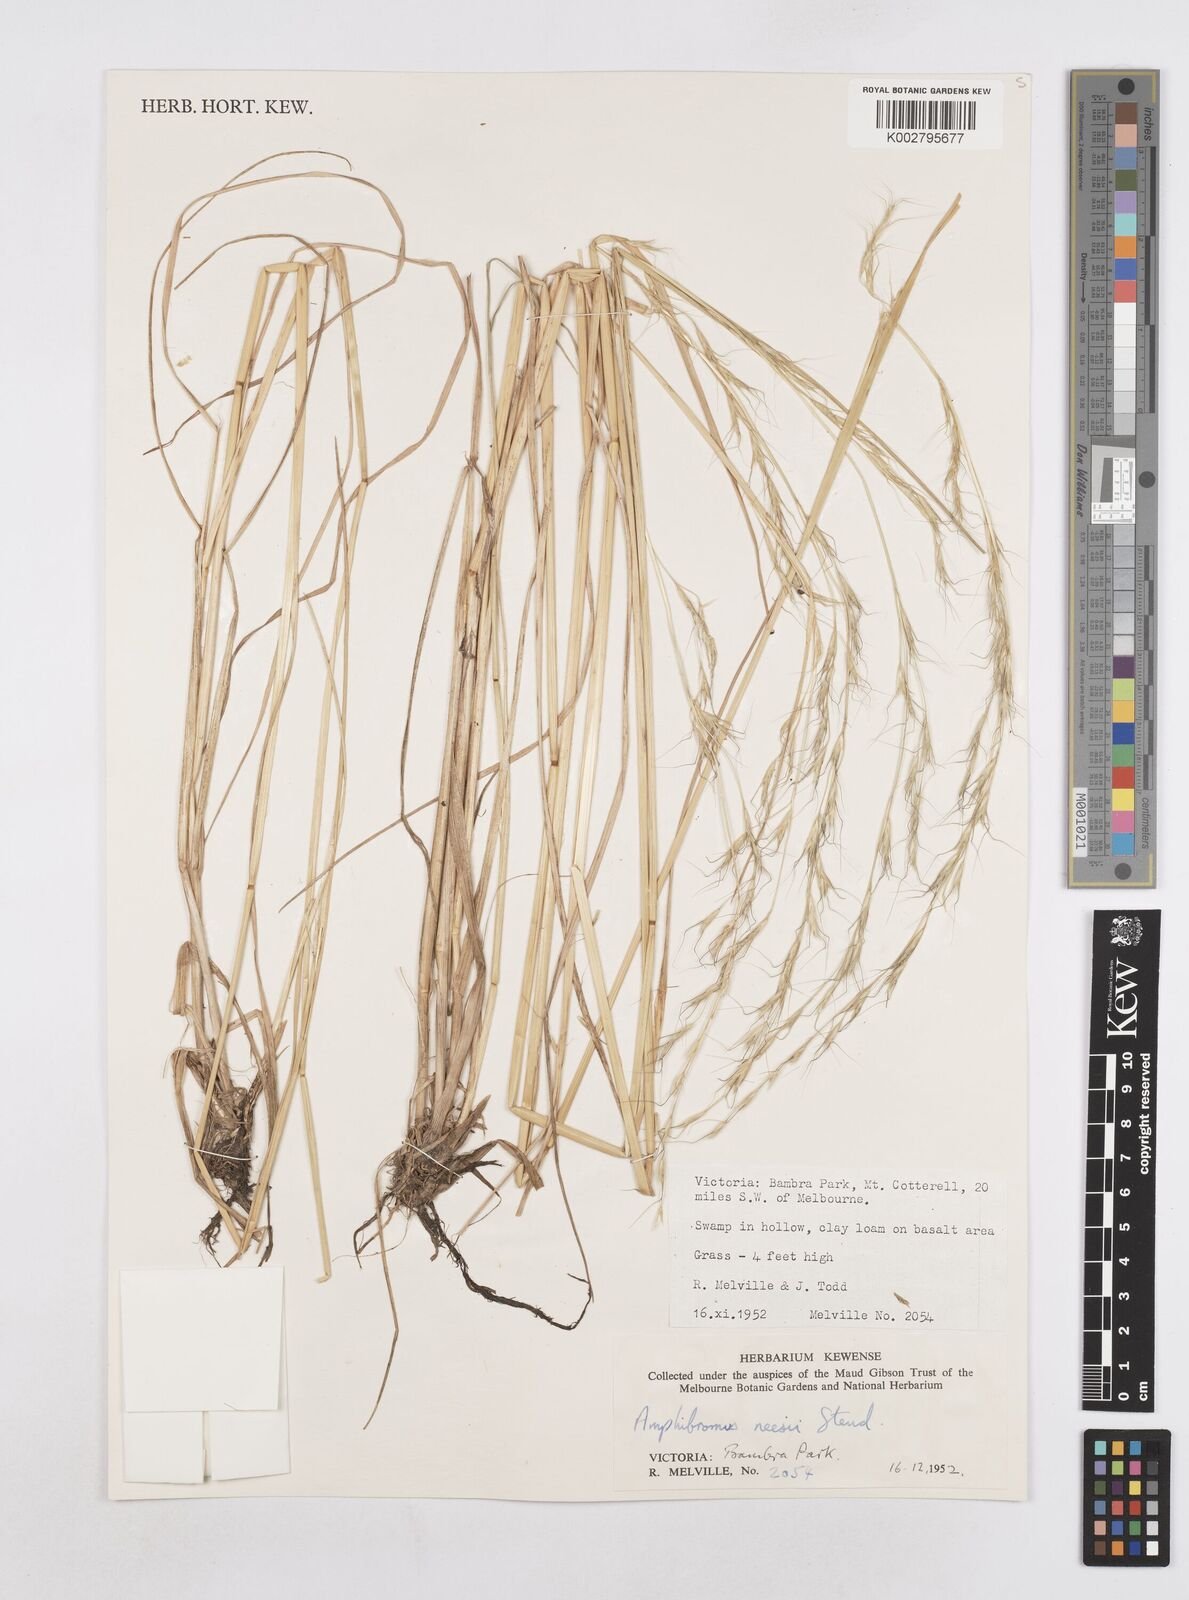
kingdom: Plantae
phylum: Tracheophyta
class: Liliopsida
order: Poales
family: Poaceae
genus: Amphibromus
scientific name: Amphibromus neesii
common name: Australian wallaby grass
